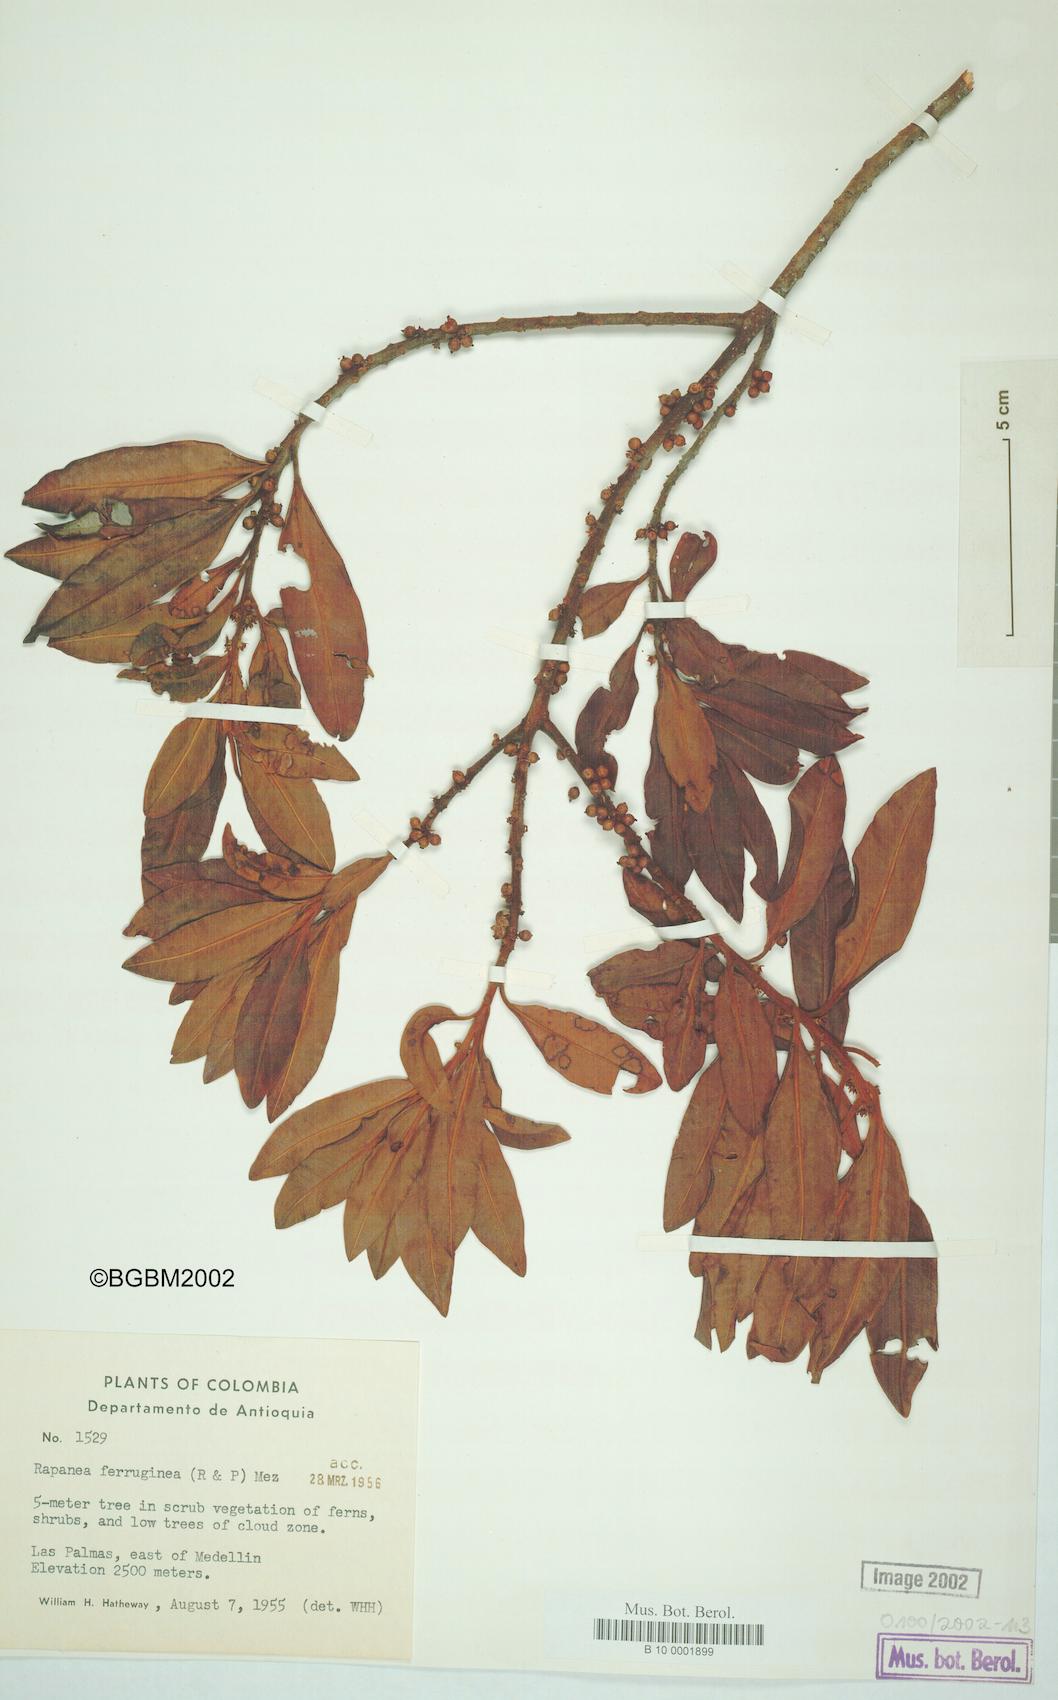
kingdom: Plantae
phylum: Tracheophyta
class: Magnoliopsida
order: Ericales
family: Primulaceae
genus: Myrsine
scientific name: Myrsine coriacea
